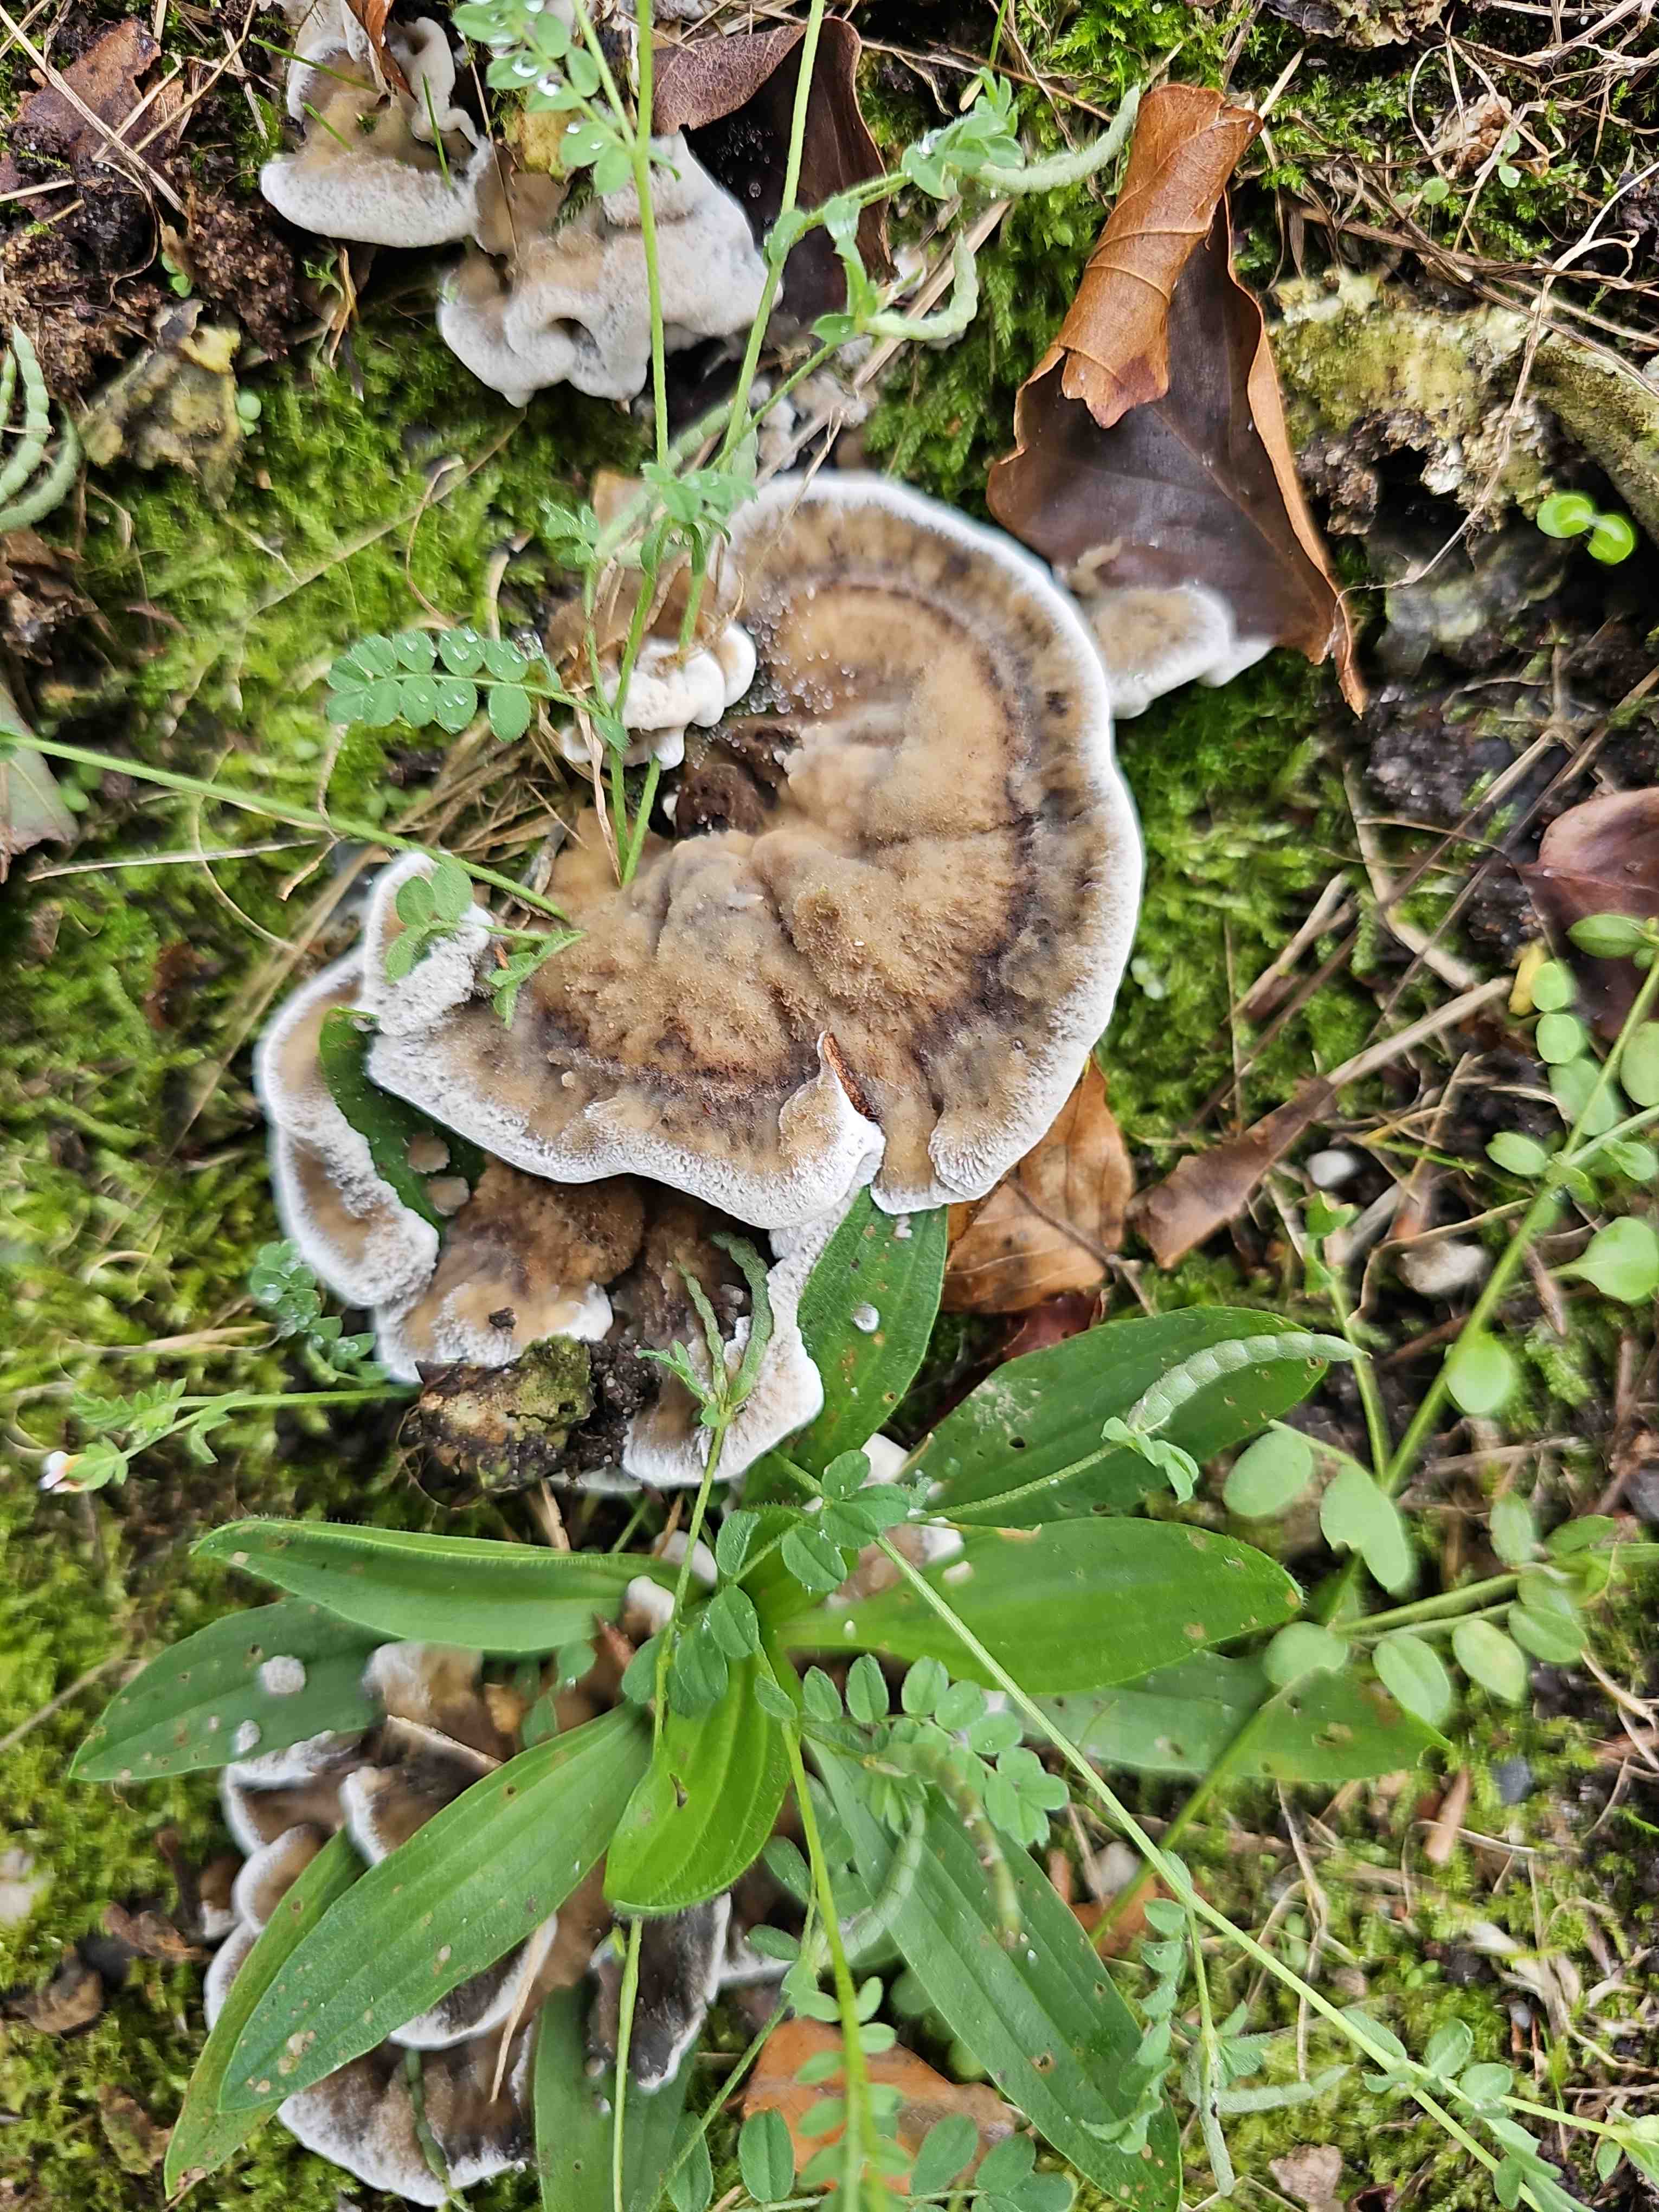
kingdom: Fungi
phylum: Basidiomycota
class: Agaricomycetes
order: Polyporales
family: Phanerochaetaceae
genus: Bjerkandera
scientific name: Bjerkandera adusta
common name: sveden sodporesvamp
